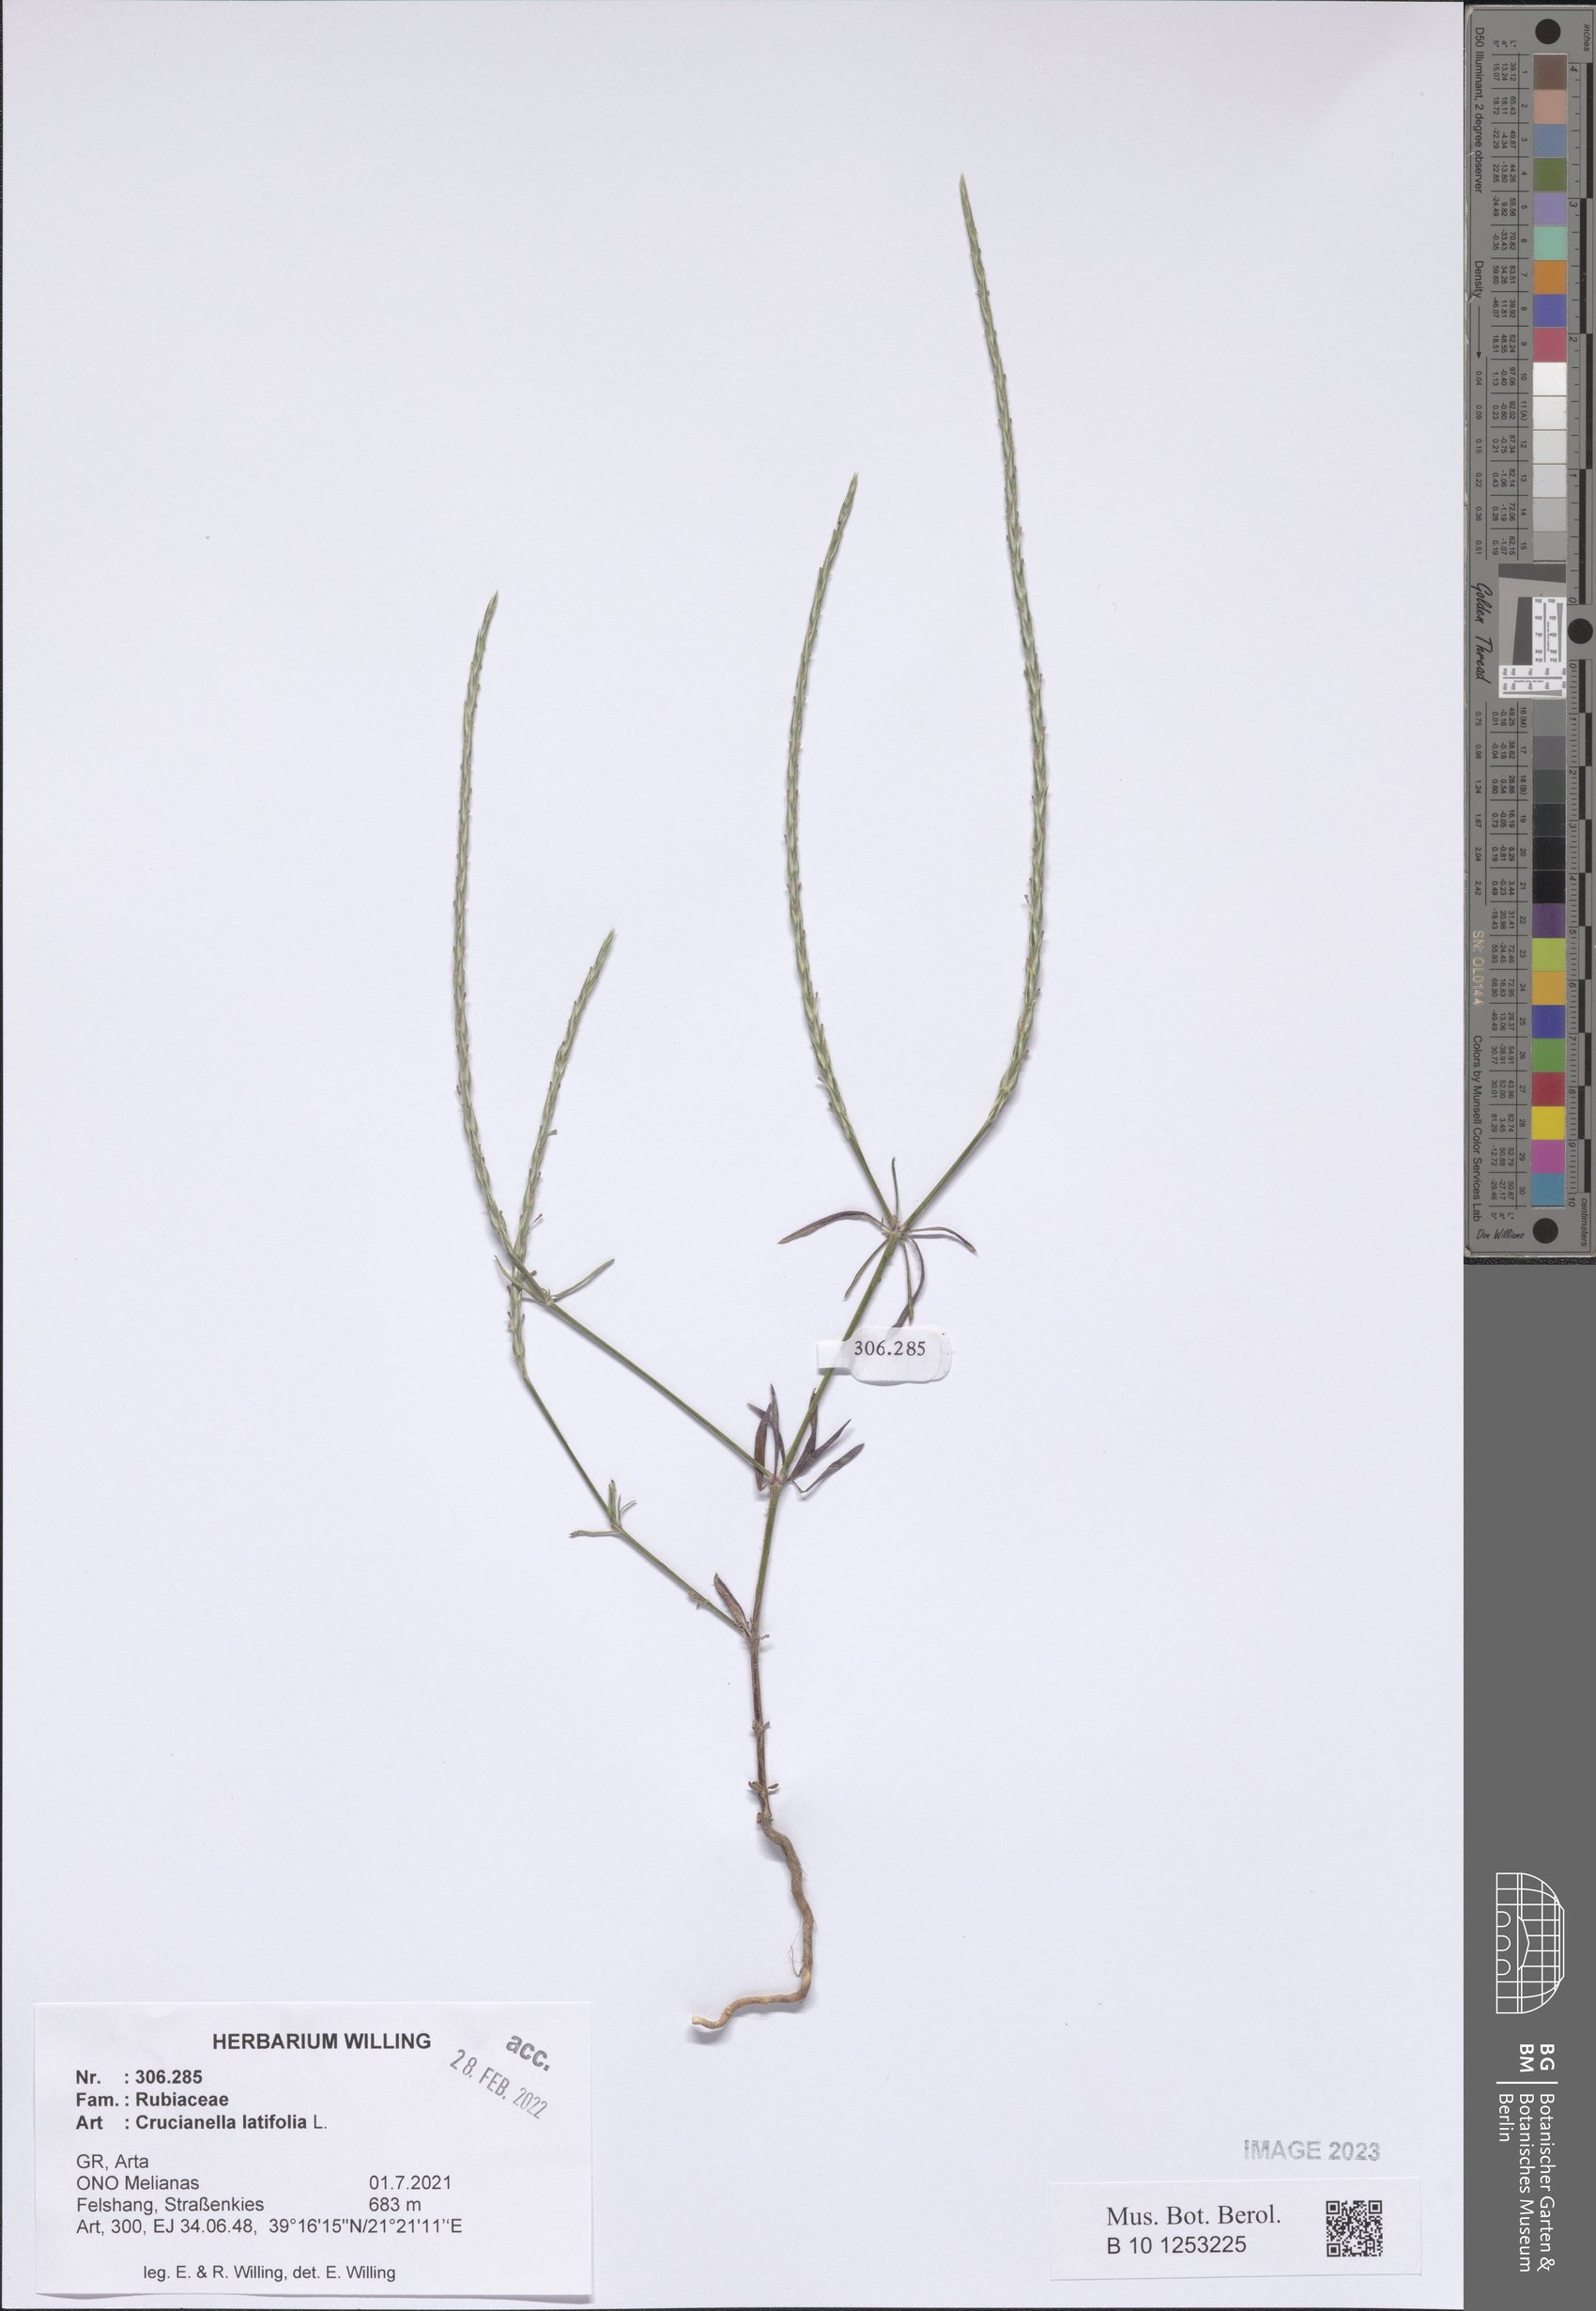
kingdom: Plantae
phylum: Tracheophyta
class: Magnoliopsida
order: Gentianales
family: Rubiaceae
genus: Crucianella
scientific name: Crucianella latifolia
